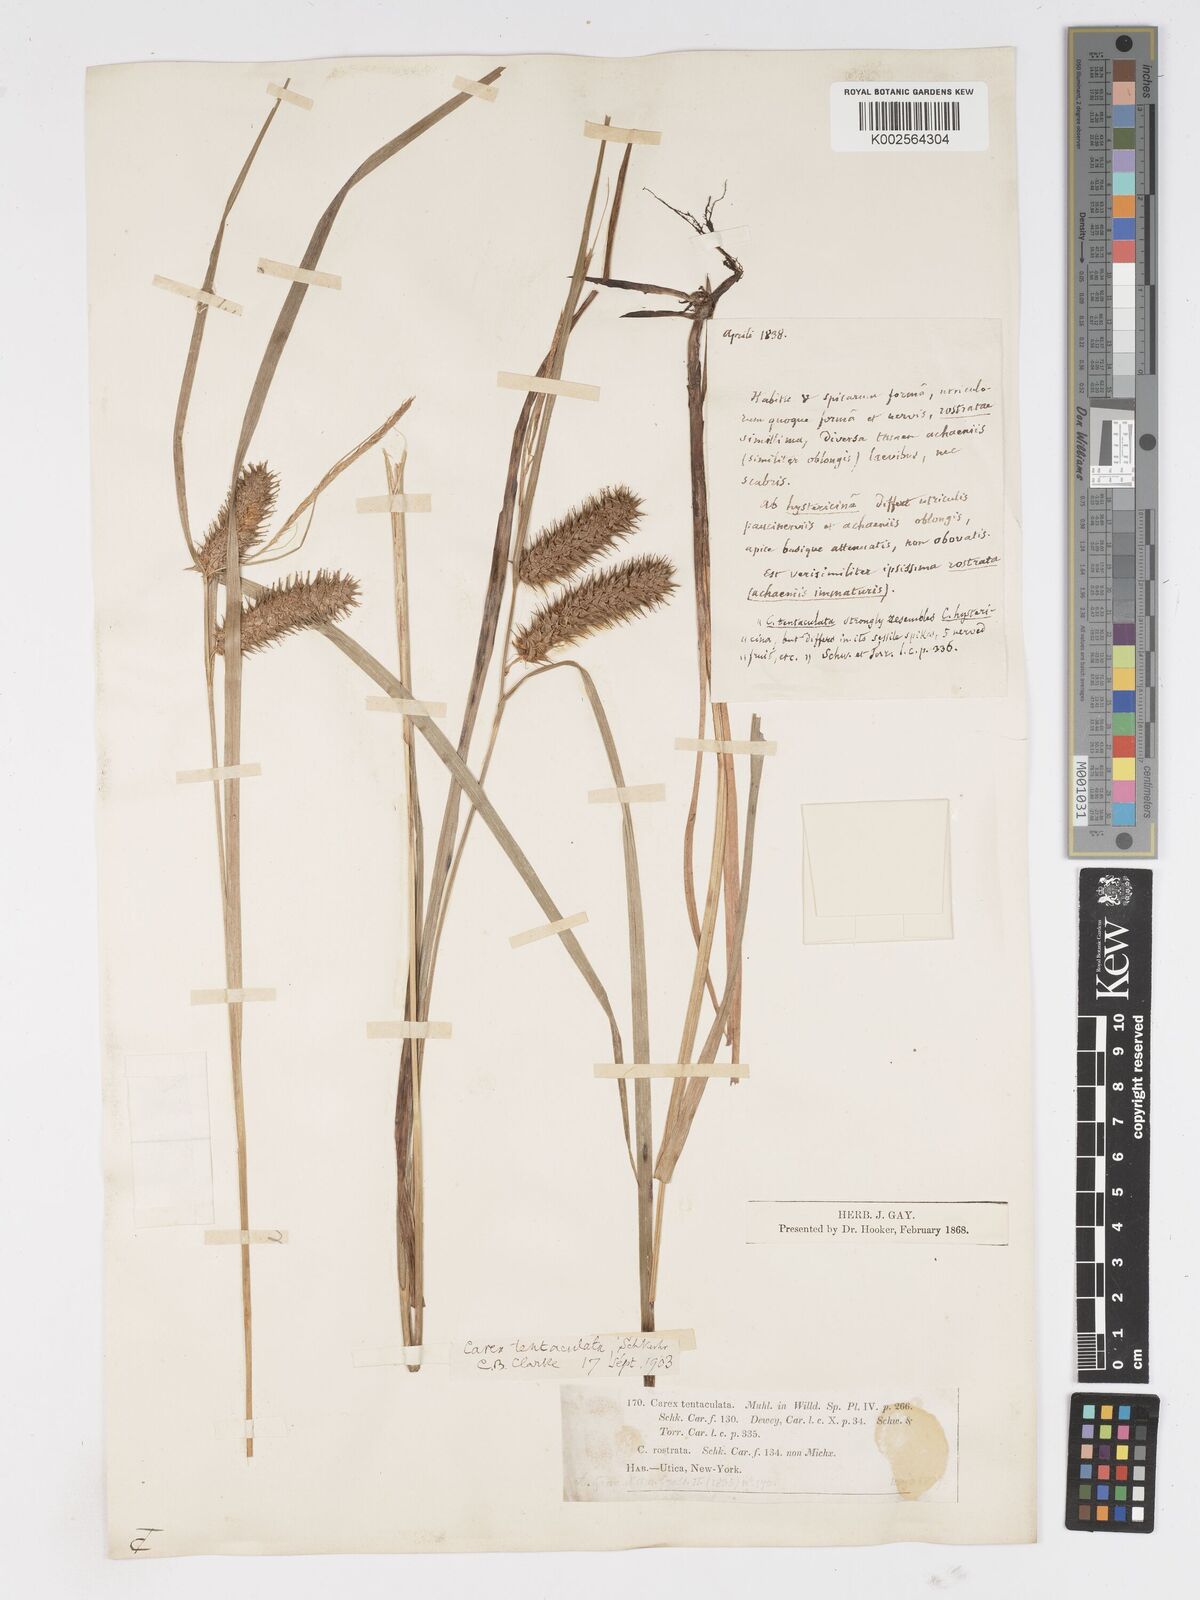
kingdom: Plantae
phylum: Tracheophyta
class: Liliopsida
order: Poales
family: Cyperaceae
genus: Carex
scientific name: Carex lurida
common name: Sallow sedge
